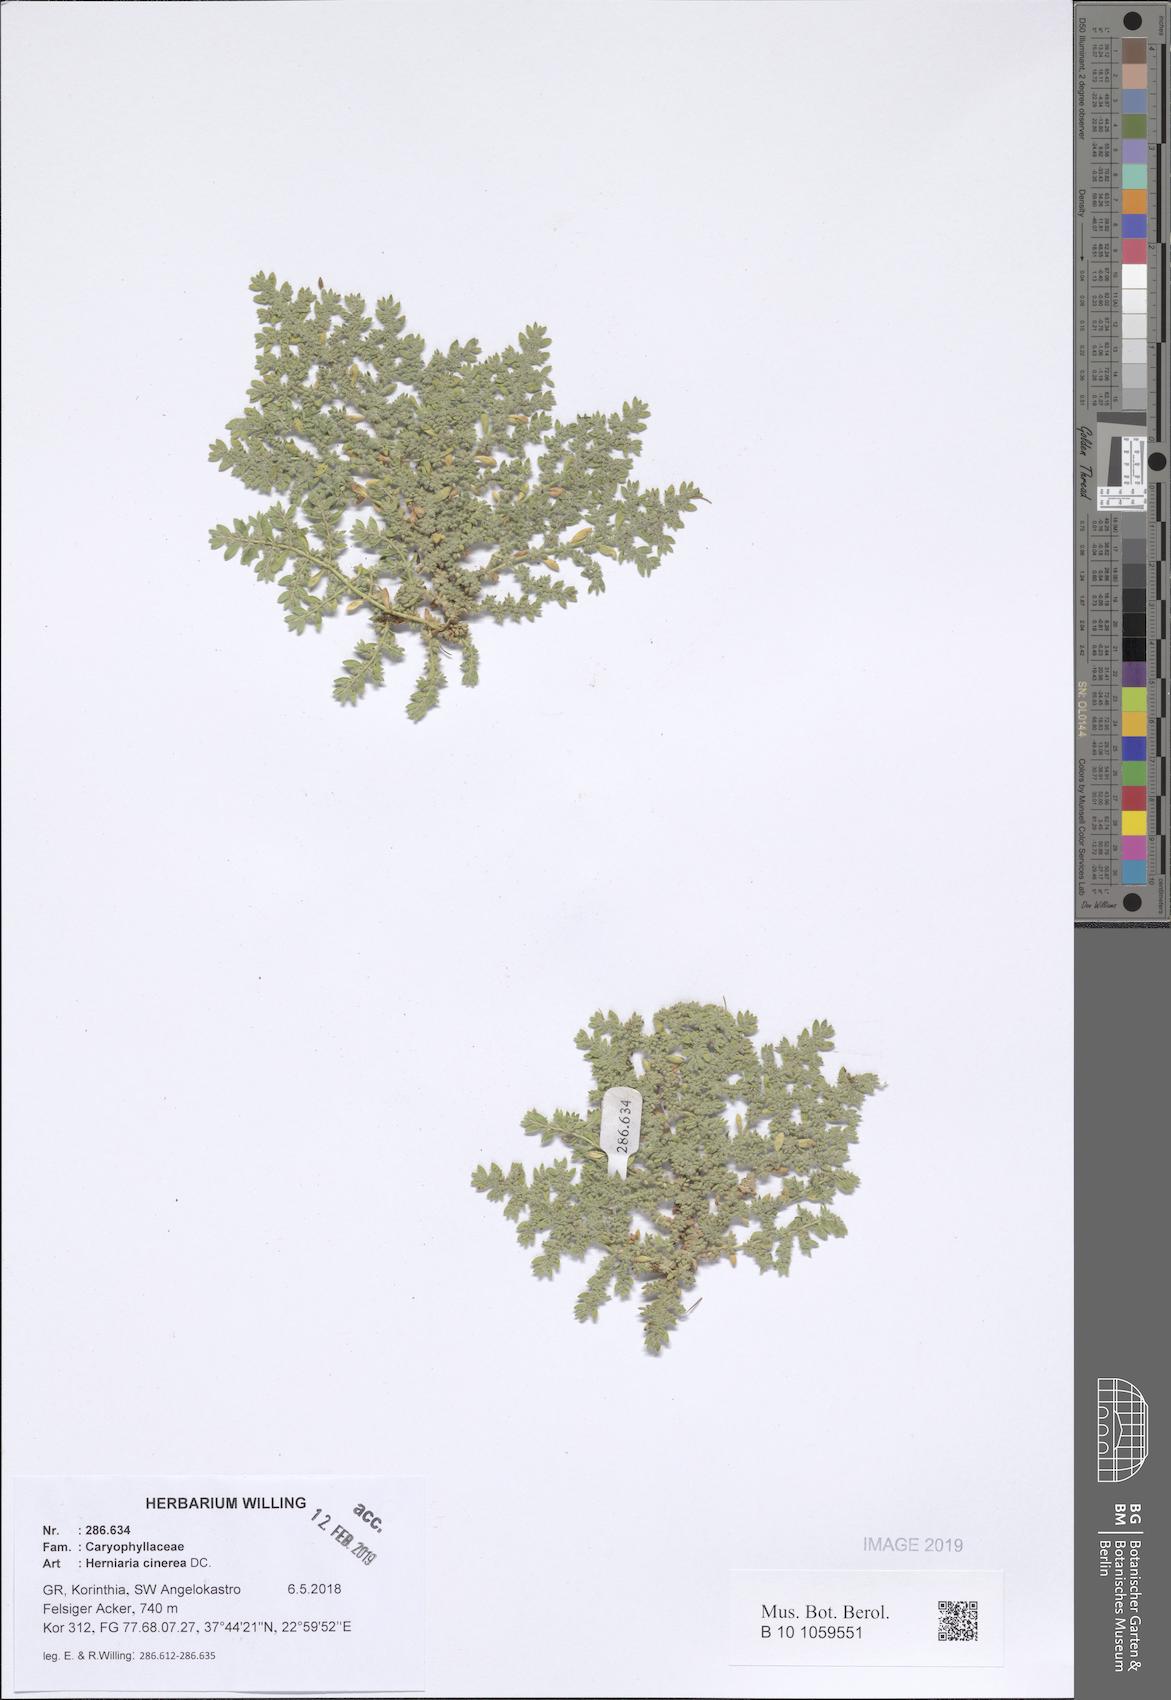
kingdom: Plantae
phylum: Tracheophyta
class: Magnoliopsida
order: Caryophyllales
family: Caryophyllaceae
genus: Herniaria
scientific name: Herniaria cinerea
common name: Hairy rupturewort
